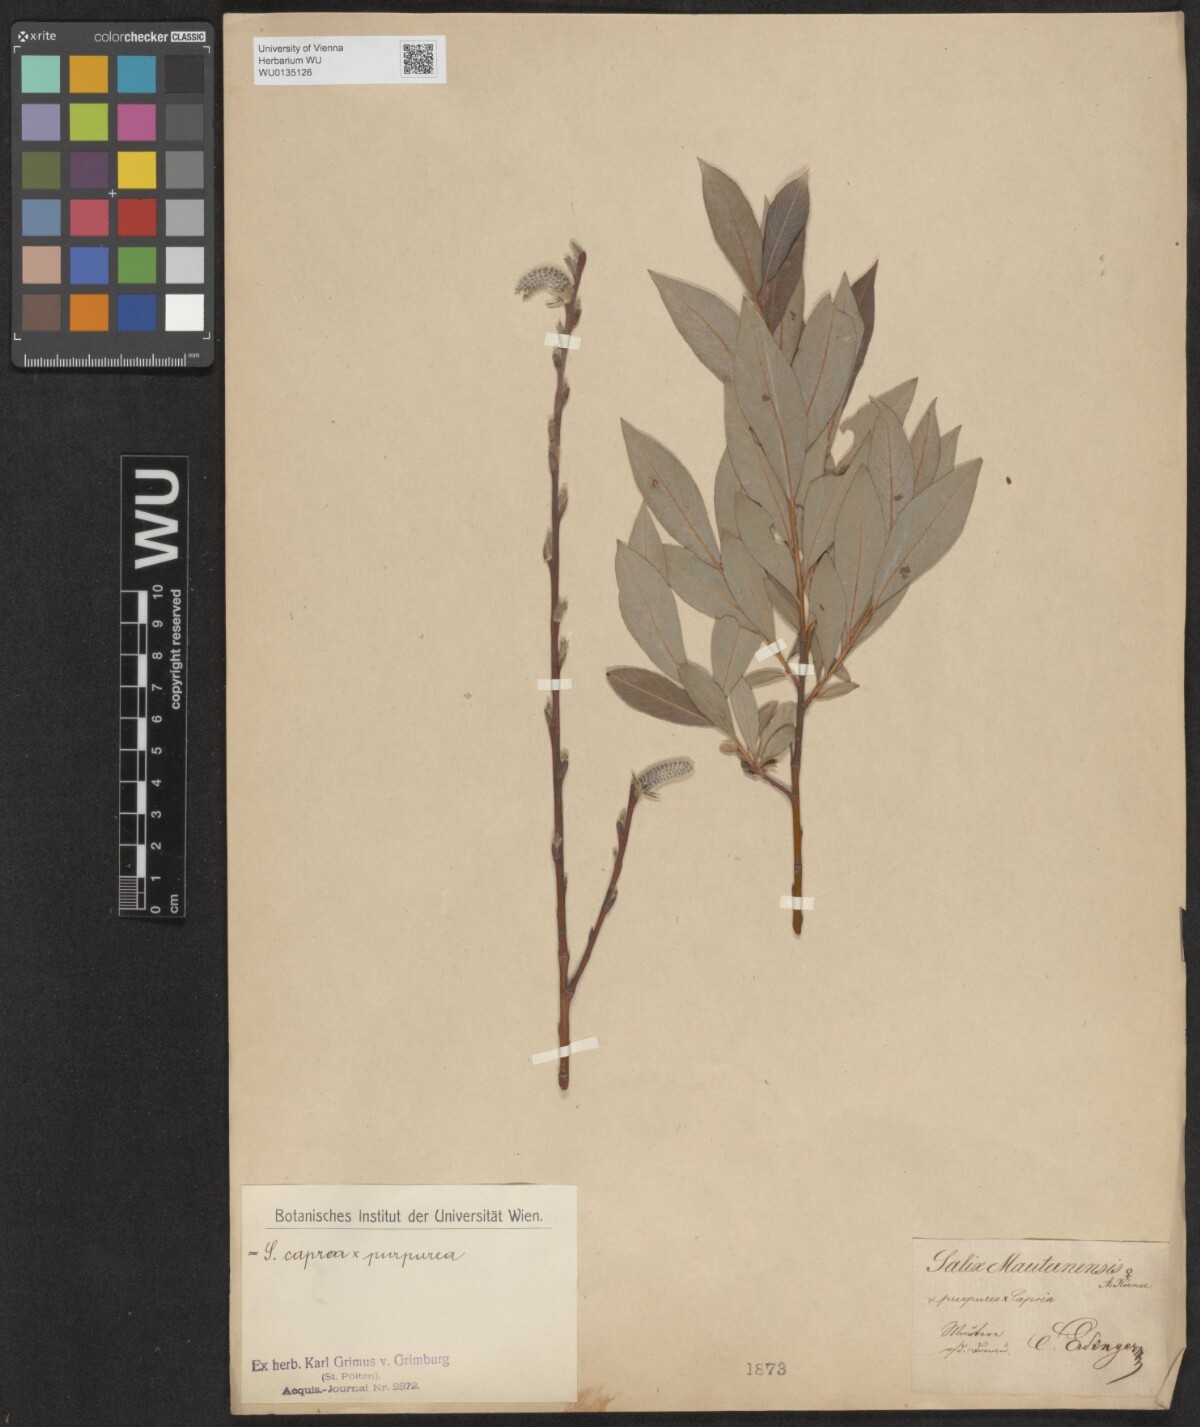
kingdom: Plantae
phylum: Tracheophyta
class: Magnoliopsida
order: Malpighiales
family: Salicaceae
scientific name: Salicaceae
